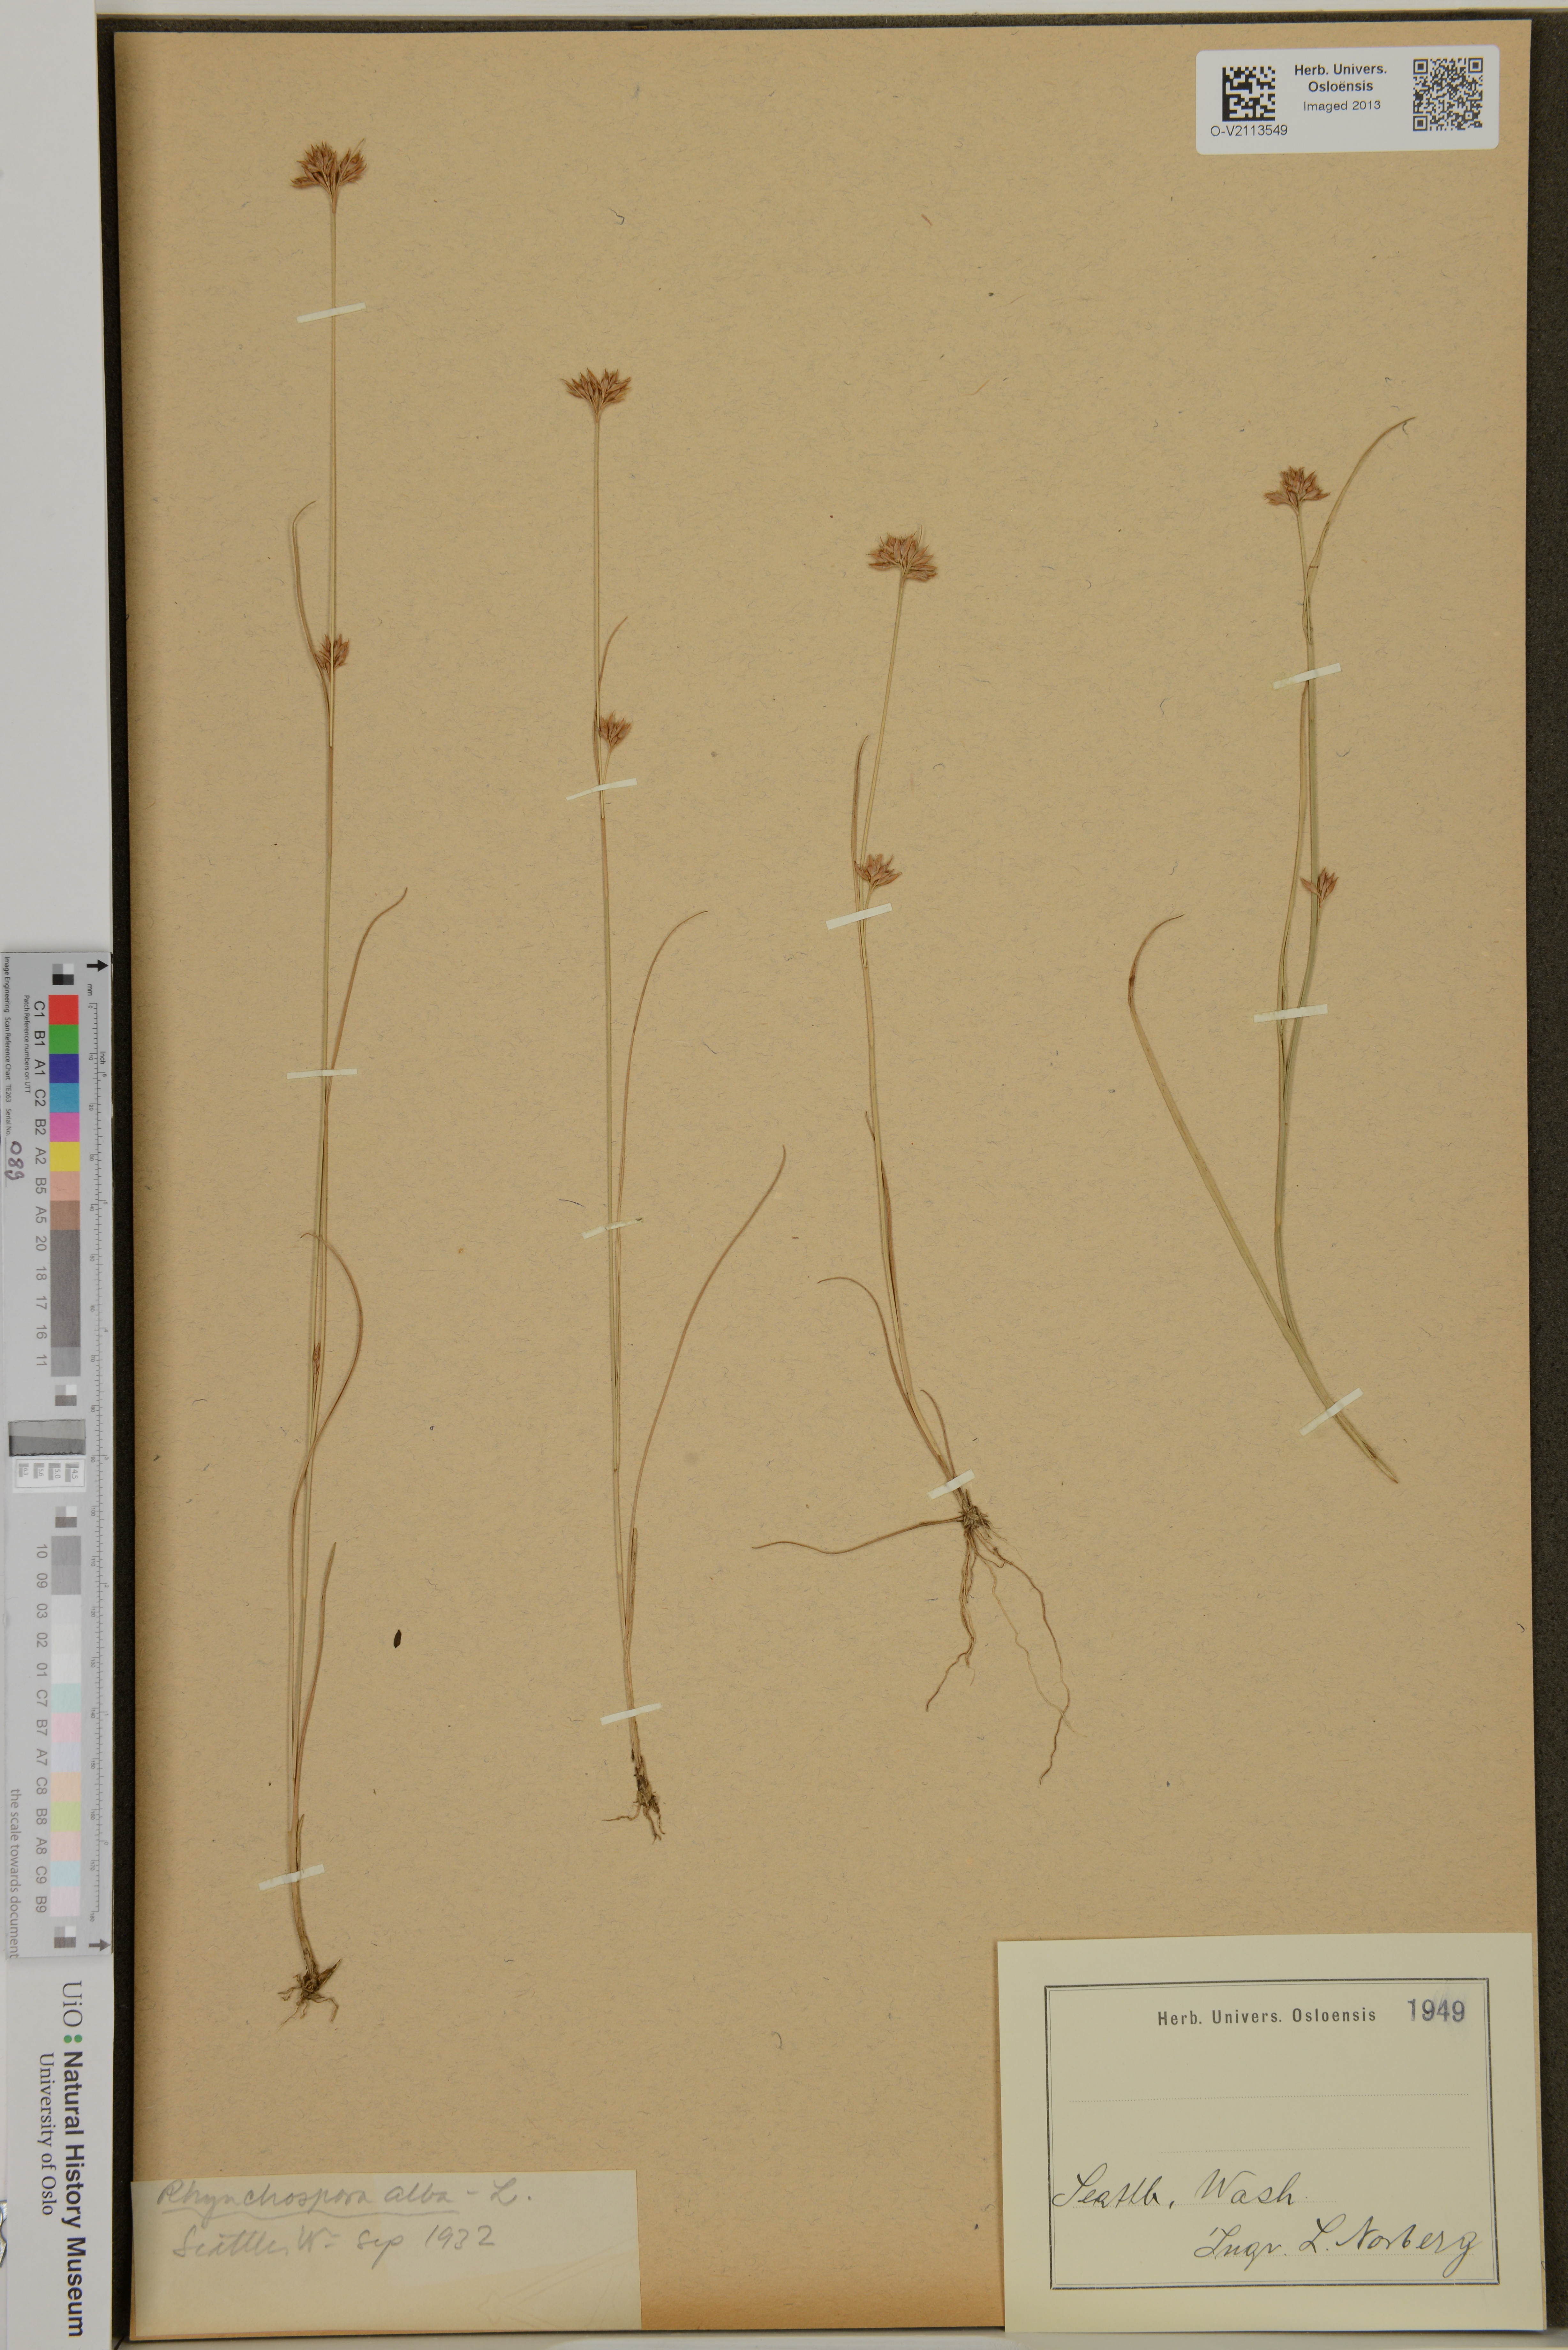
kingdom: Plantae
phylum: Tracheophyta
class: Liliopsida
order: Poales
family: Cyperaceae
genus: Rhynchospora
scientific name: Rhynchospora alba
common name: White beak-sedge
